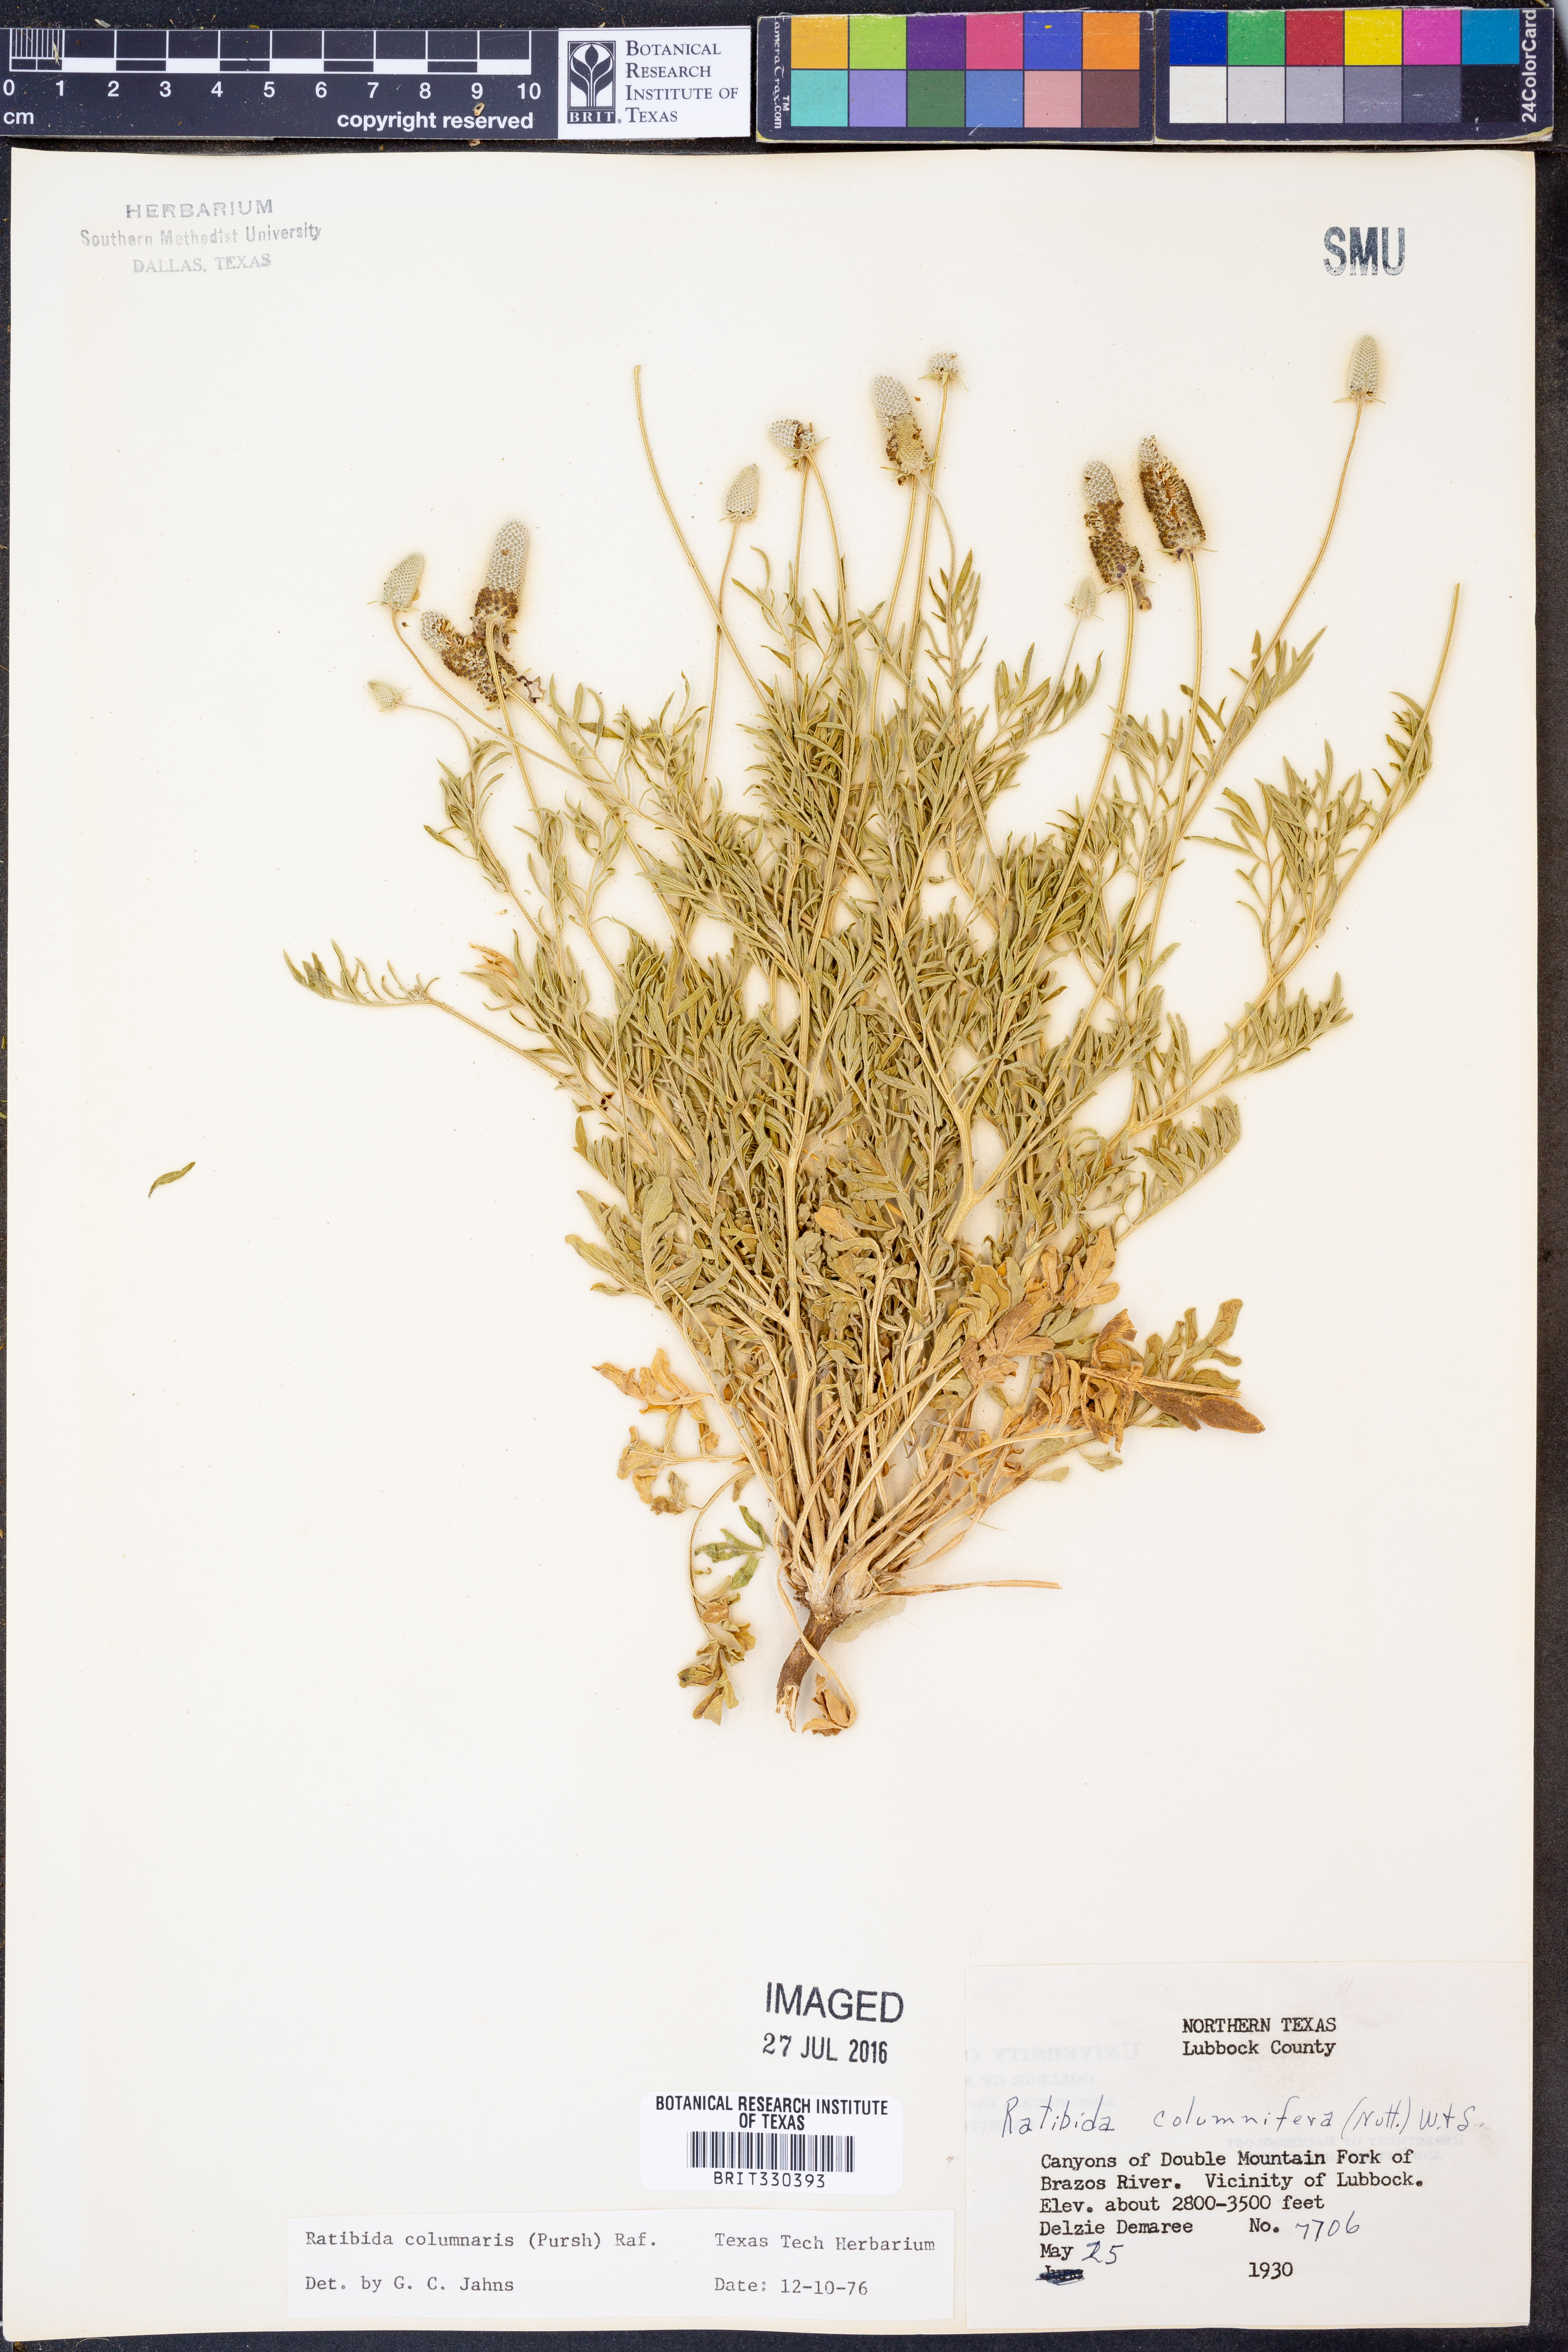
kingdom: Plantae
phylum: Tracheophyta
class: Magnoliopsida
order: Asterales
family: Asteraceae
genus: Ratibida
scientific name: Ratibida columnifera
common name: Prairie coneflower
